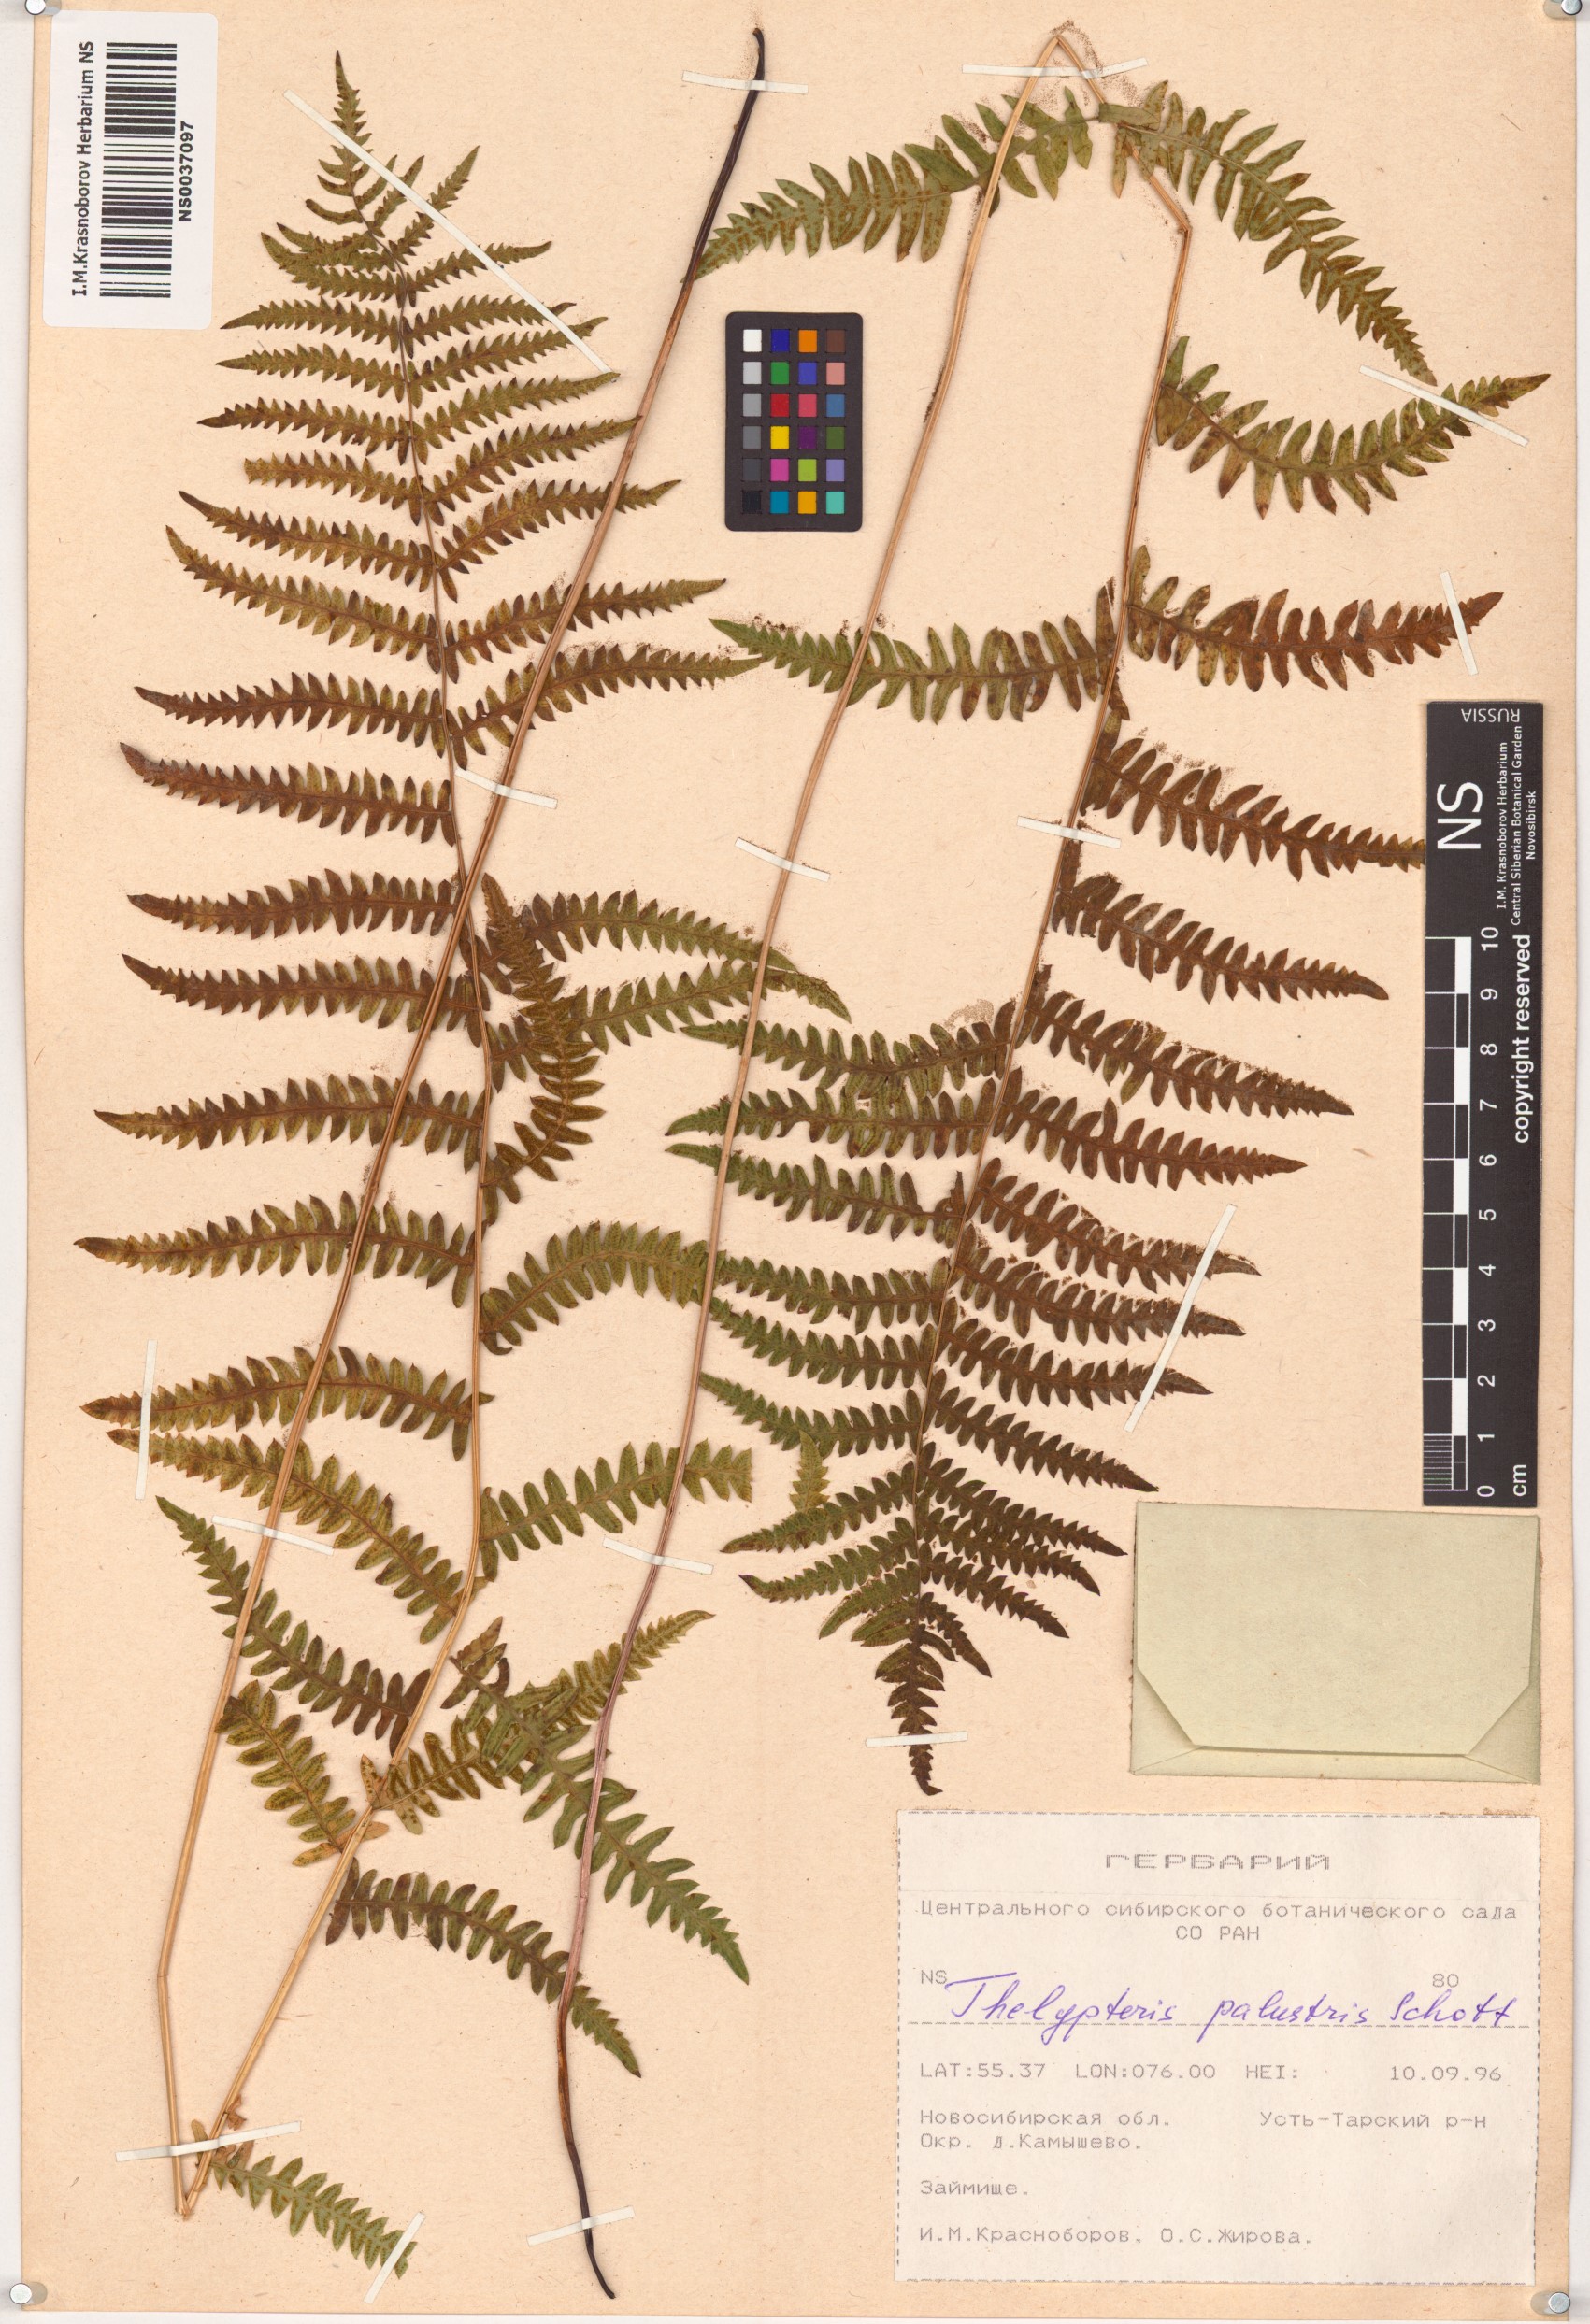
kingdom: Plantae
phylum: Tracheophyta
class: Polypodiopsida
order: Polypodiales
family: Thelypteridaceae
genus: Thelypteris
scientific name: Thelypteris palustris
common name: Marsh fern
